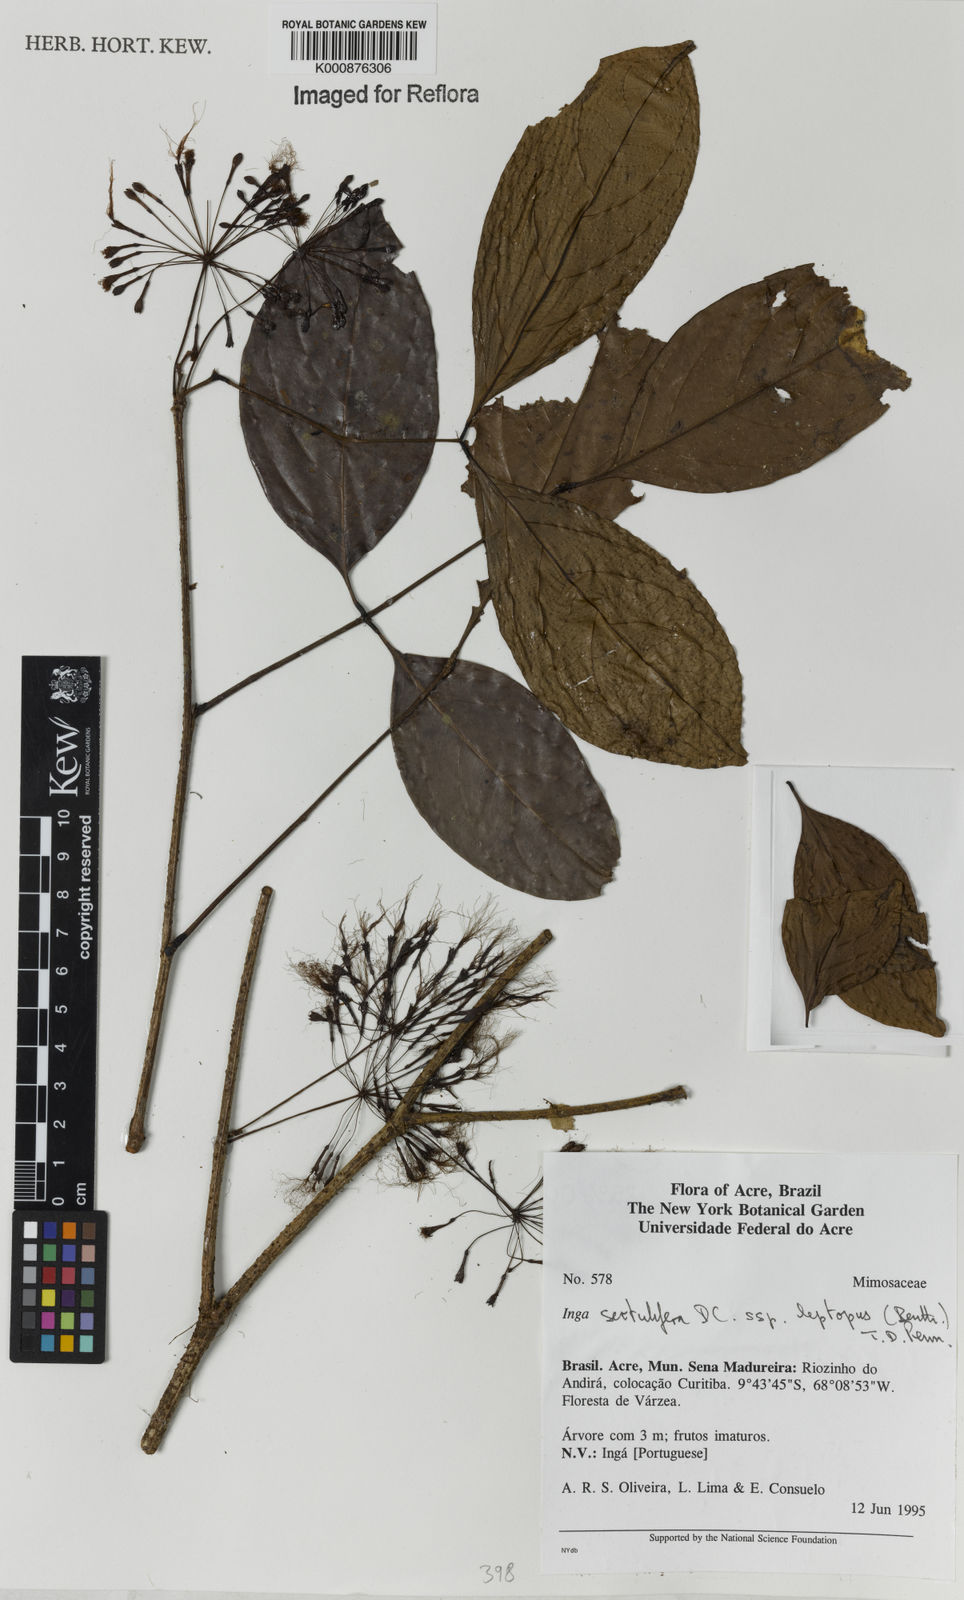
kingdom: Plantae
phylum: Tracheophyta
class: Magnoliopsida
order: Fabales
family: Fabaceae
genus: Inga
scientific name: Inga sertulifera
